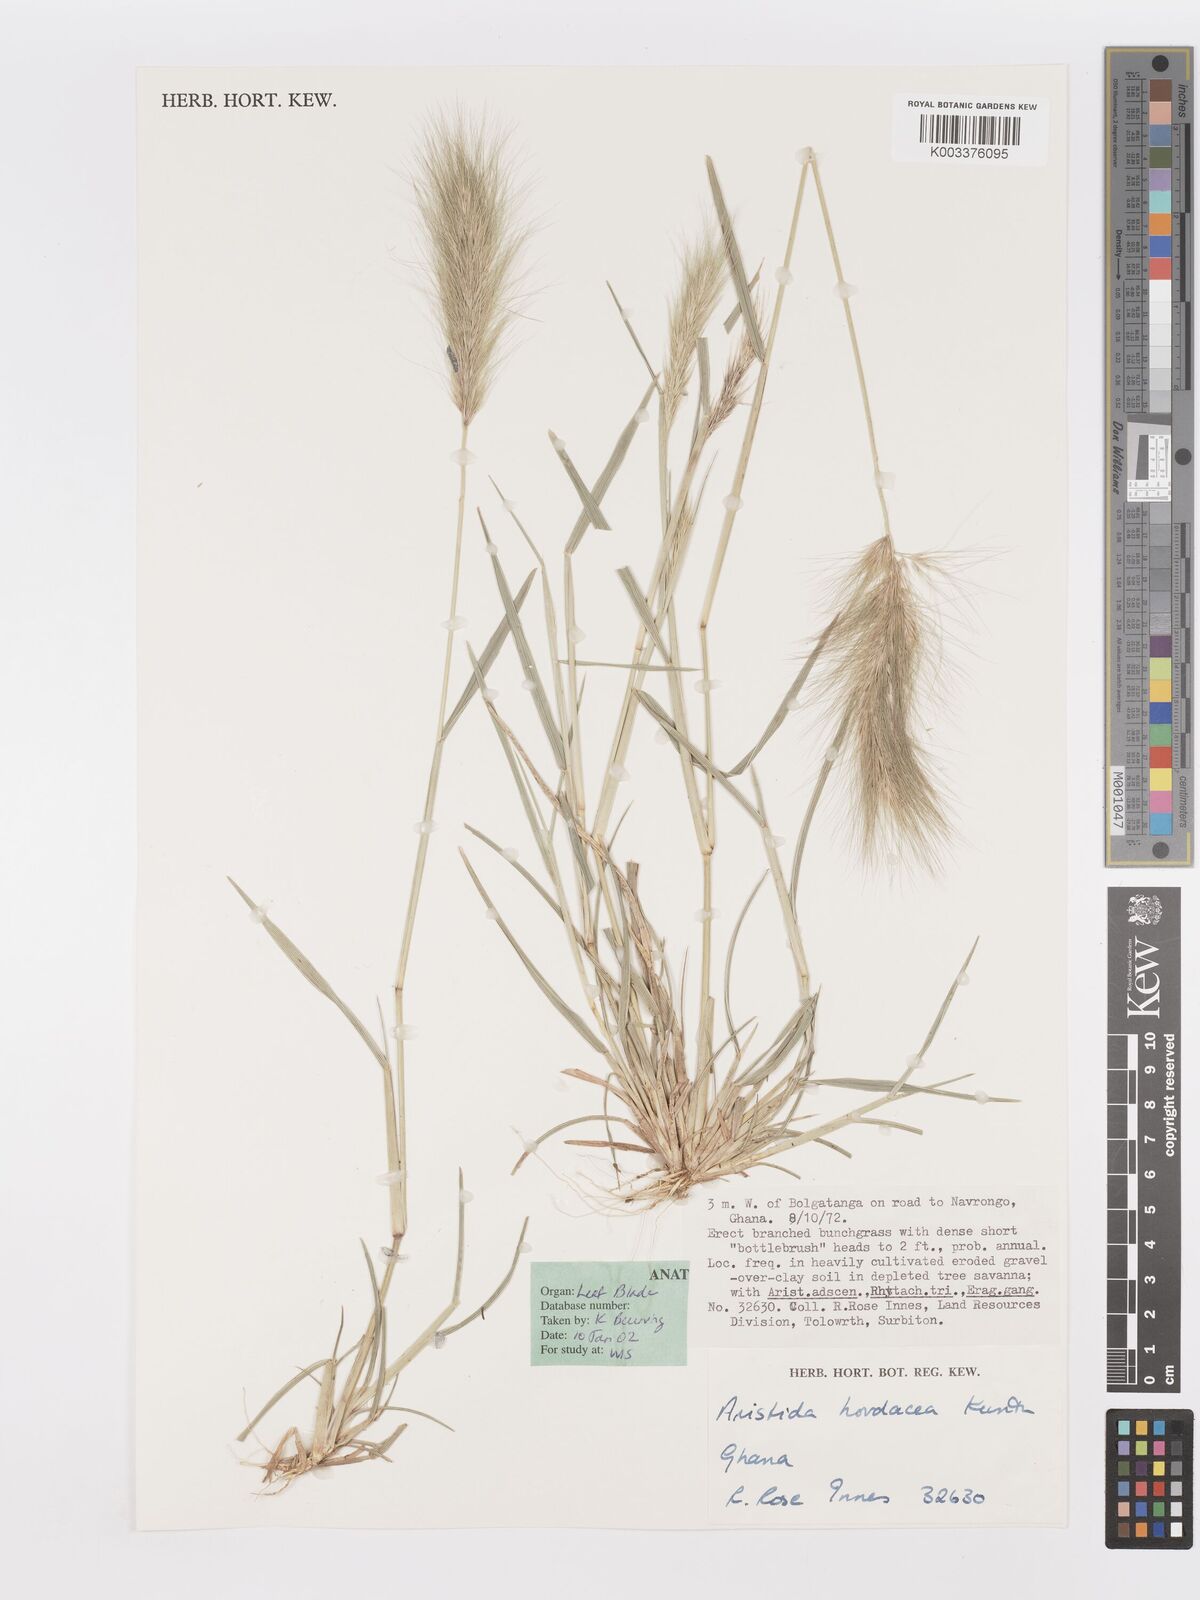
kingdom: Plantae
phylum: Tracheophyta
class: Liliopsida
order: Poales
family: Poaceae
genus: Aristida
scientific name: Aristida hordeacea
